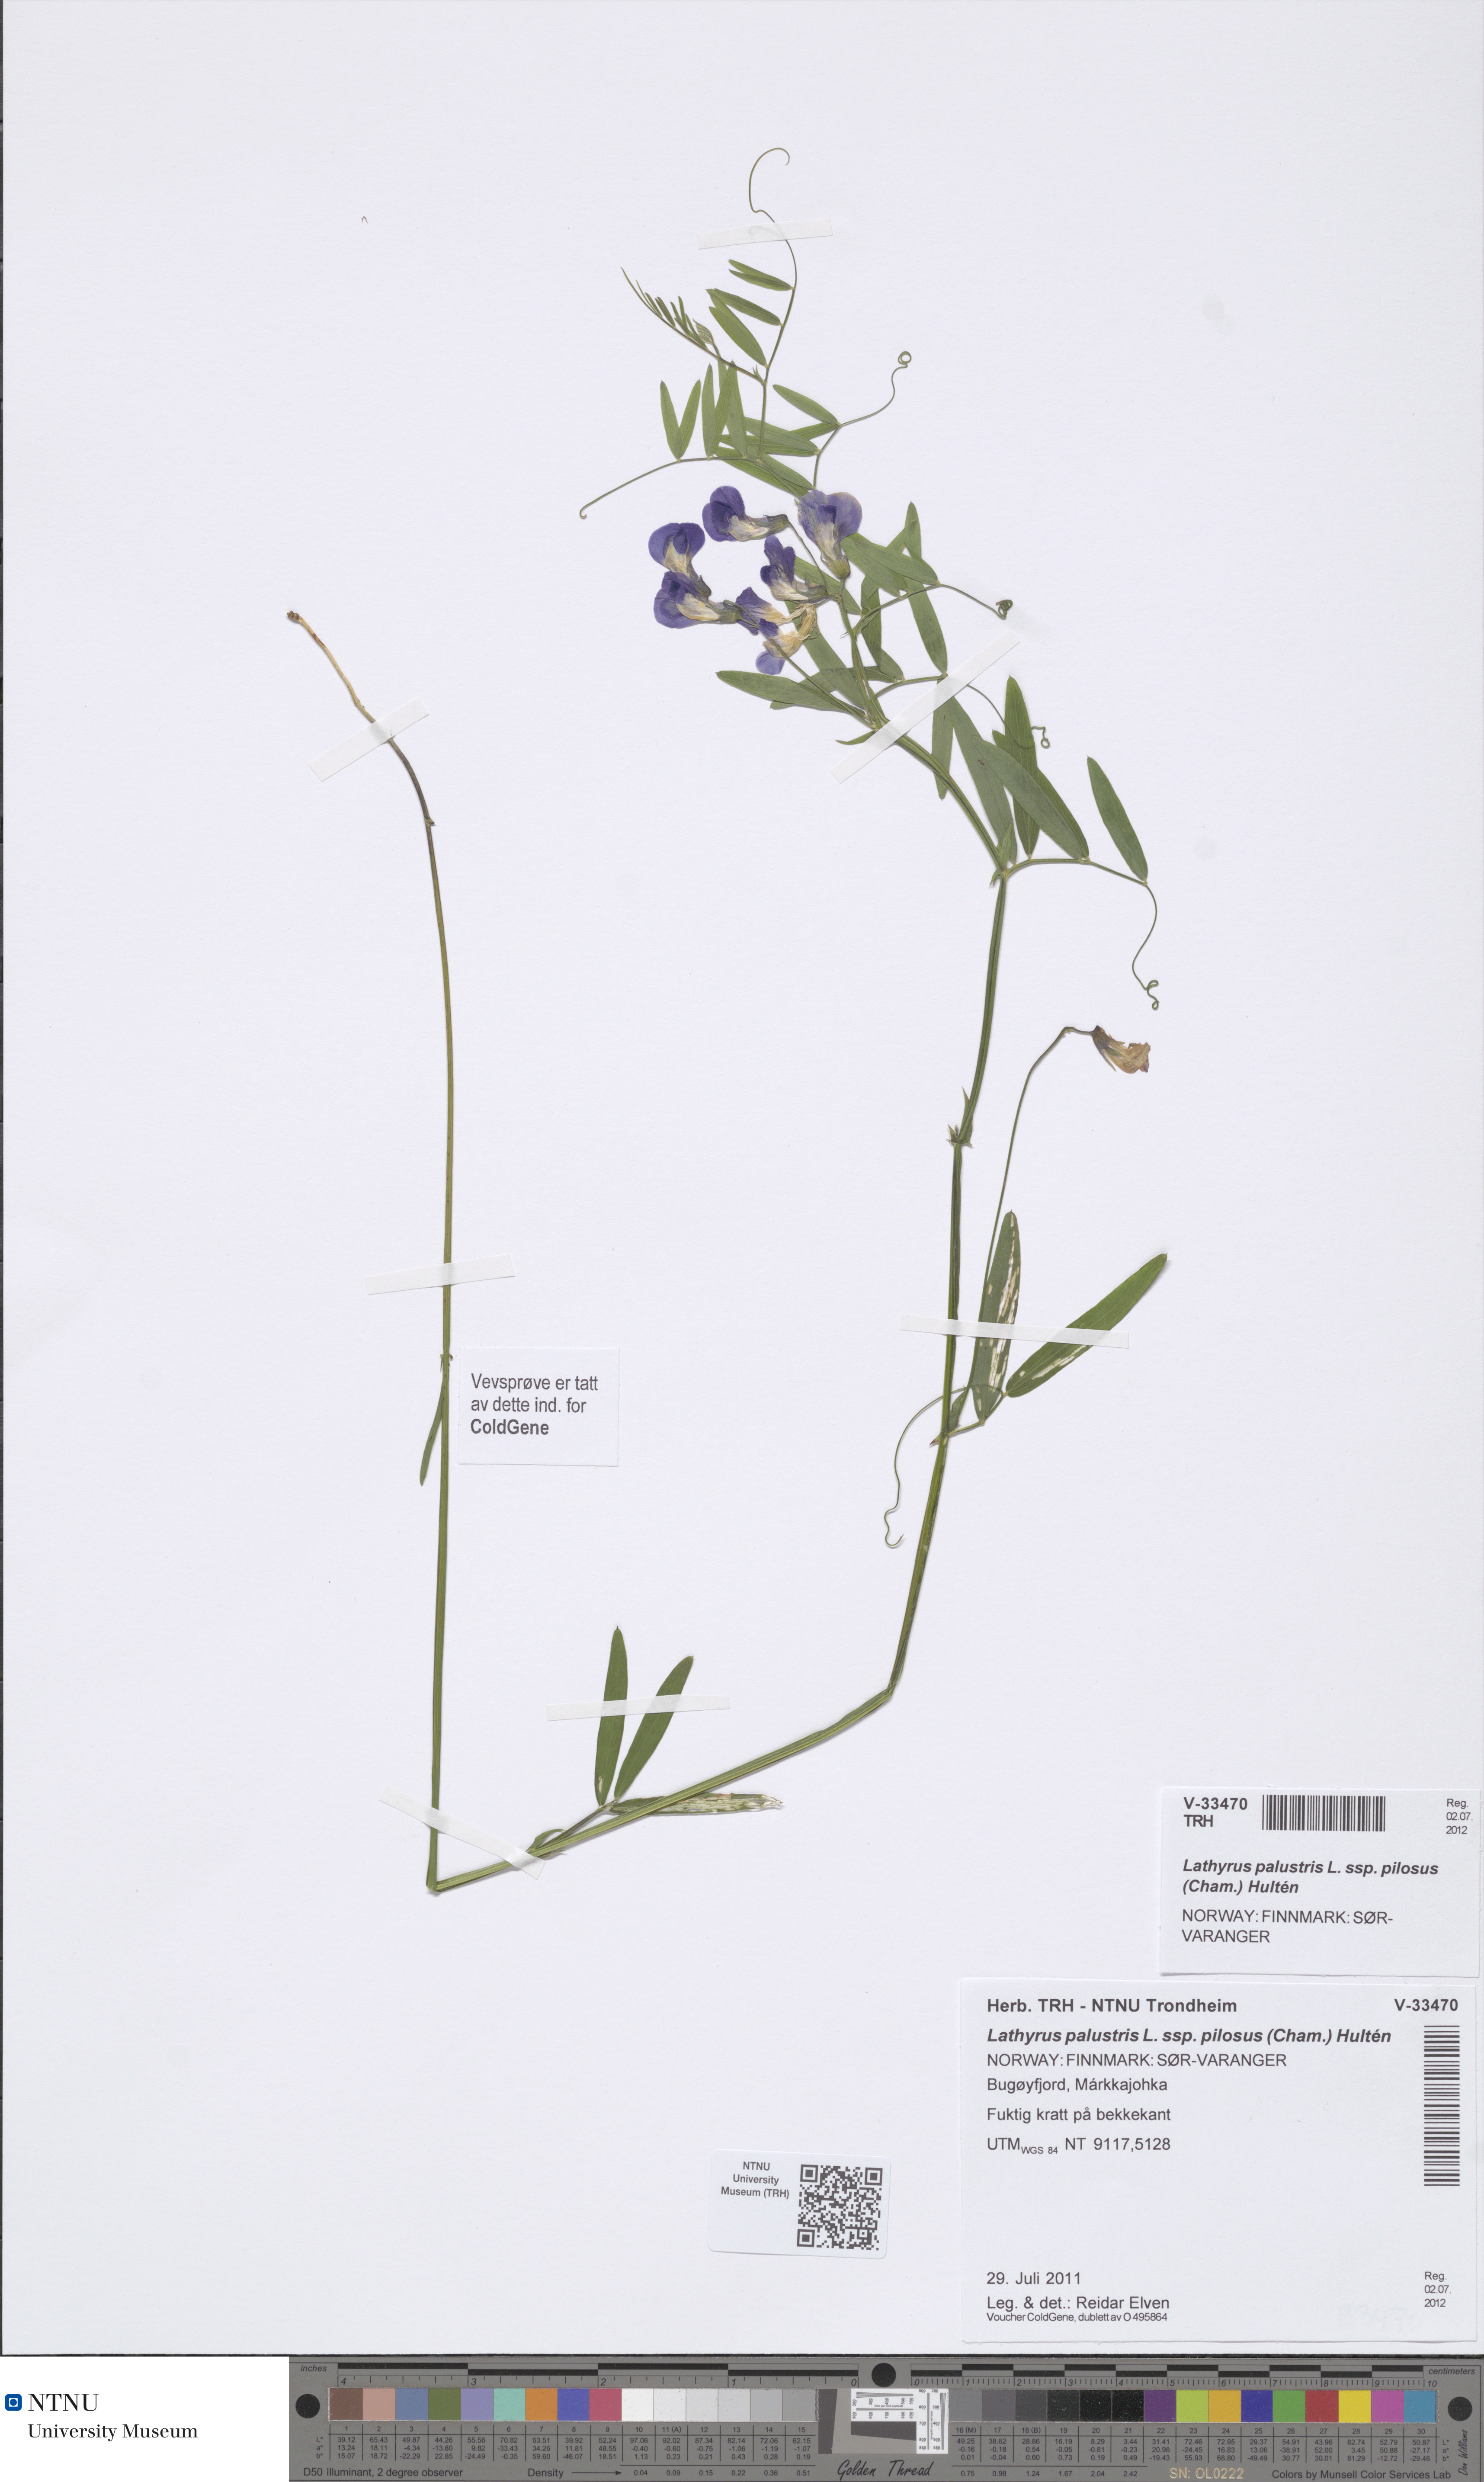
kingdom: Plantae
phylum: Tracheophyta
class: Magnoliopsida
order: Fabales
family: Fabaceae
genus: Lathyrus
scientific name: Lathyrus palustris
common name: Marsh pea
